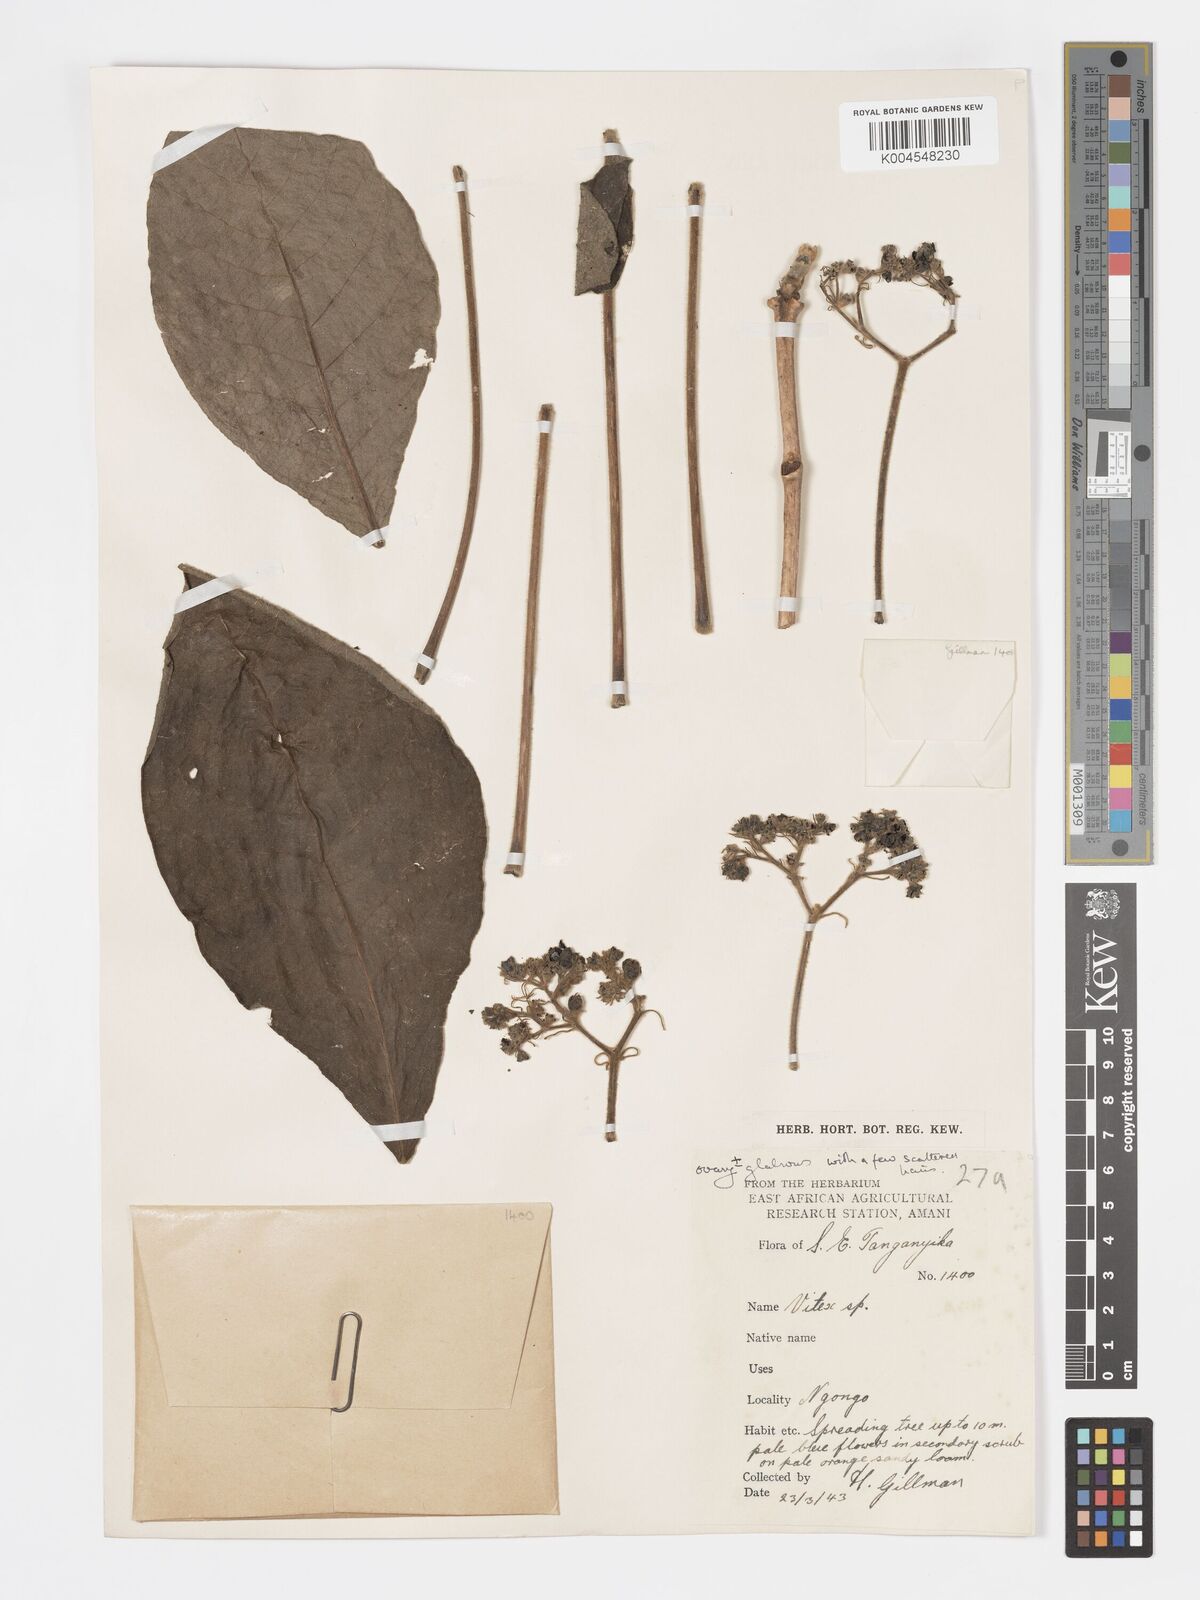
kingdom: Plantae
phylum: Tracheophyta
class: Magnoliopsida
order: Lamiales
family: Lamiaceae
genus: Vitex
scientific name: Vitex payos
